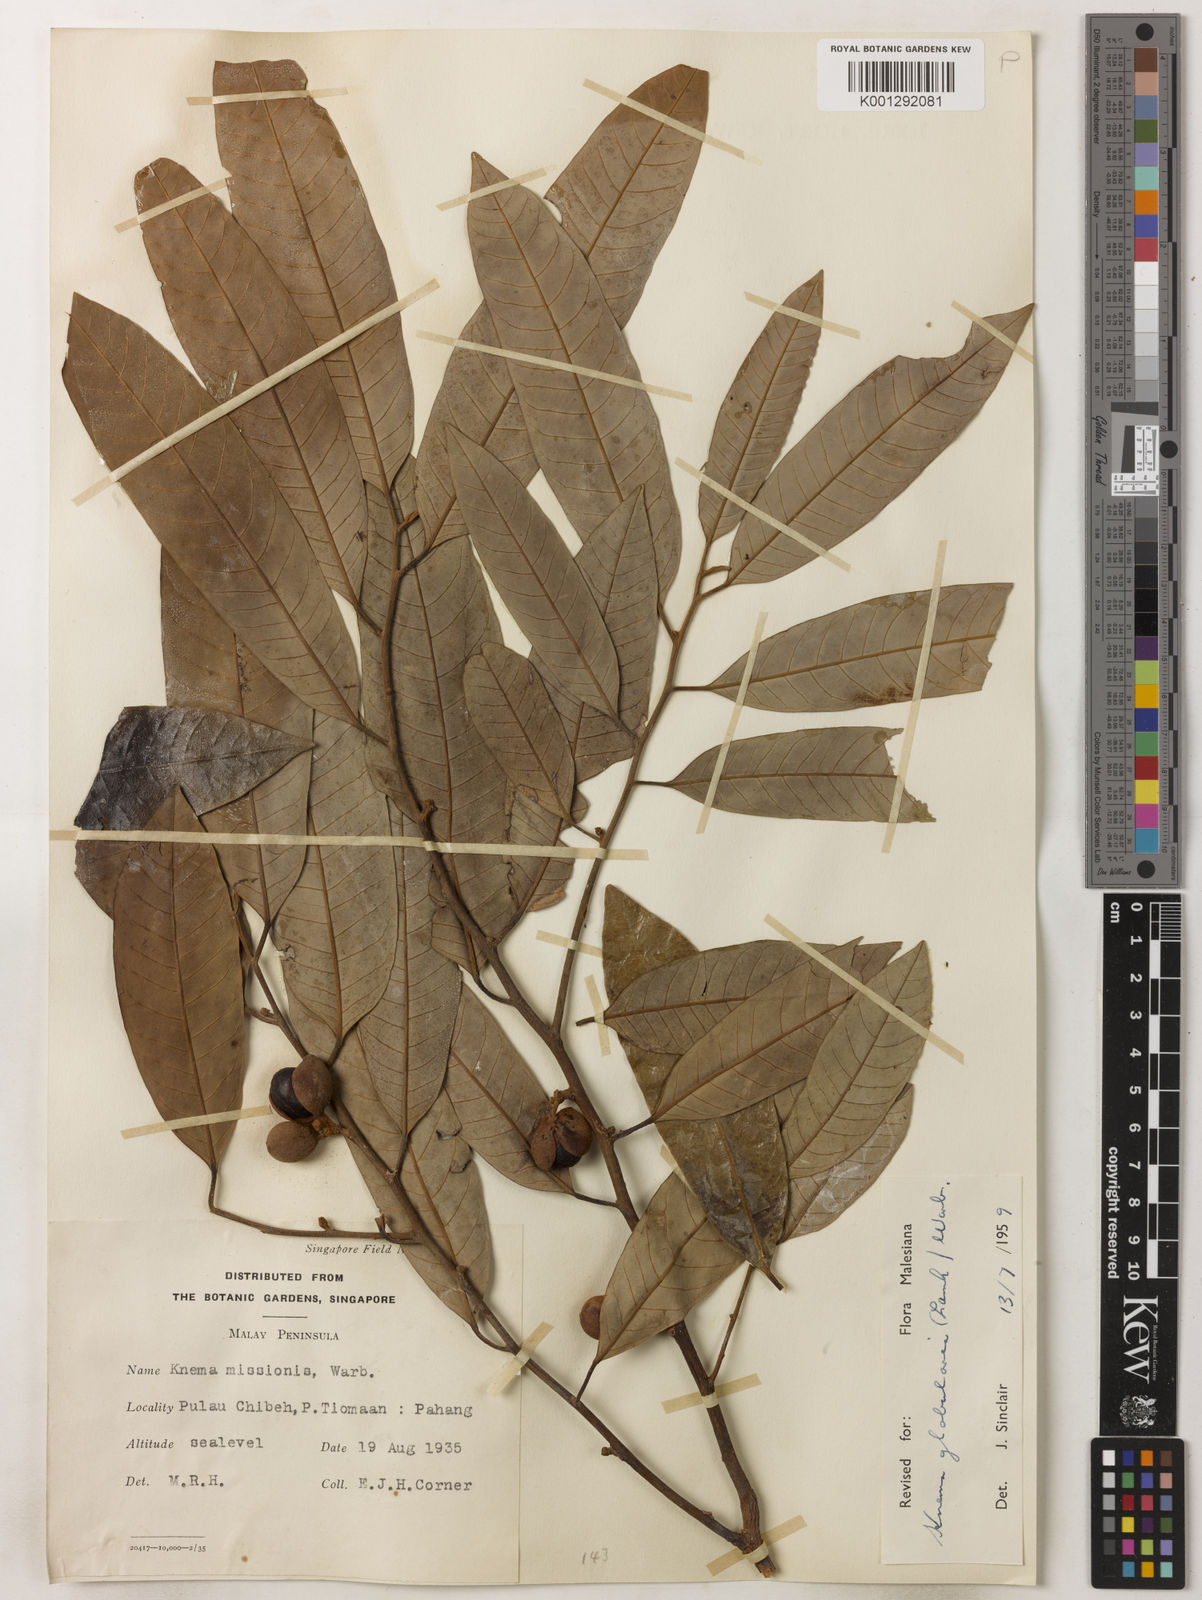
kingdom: Plantae
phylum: Tracheophyta
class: Magnoliopsida
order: Magnoliales
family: Myristicaceae
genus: Knema
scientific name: Knema globularia
